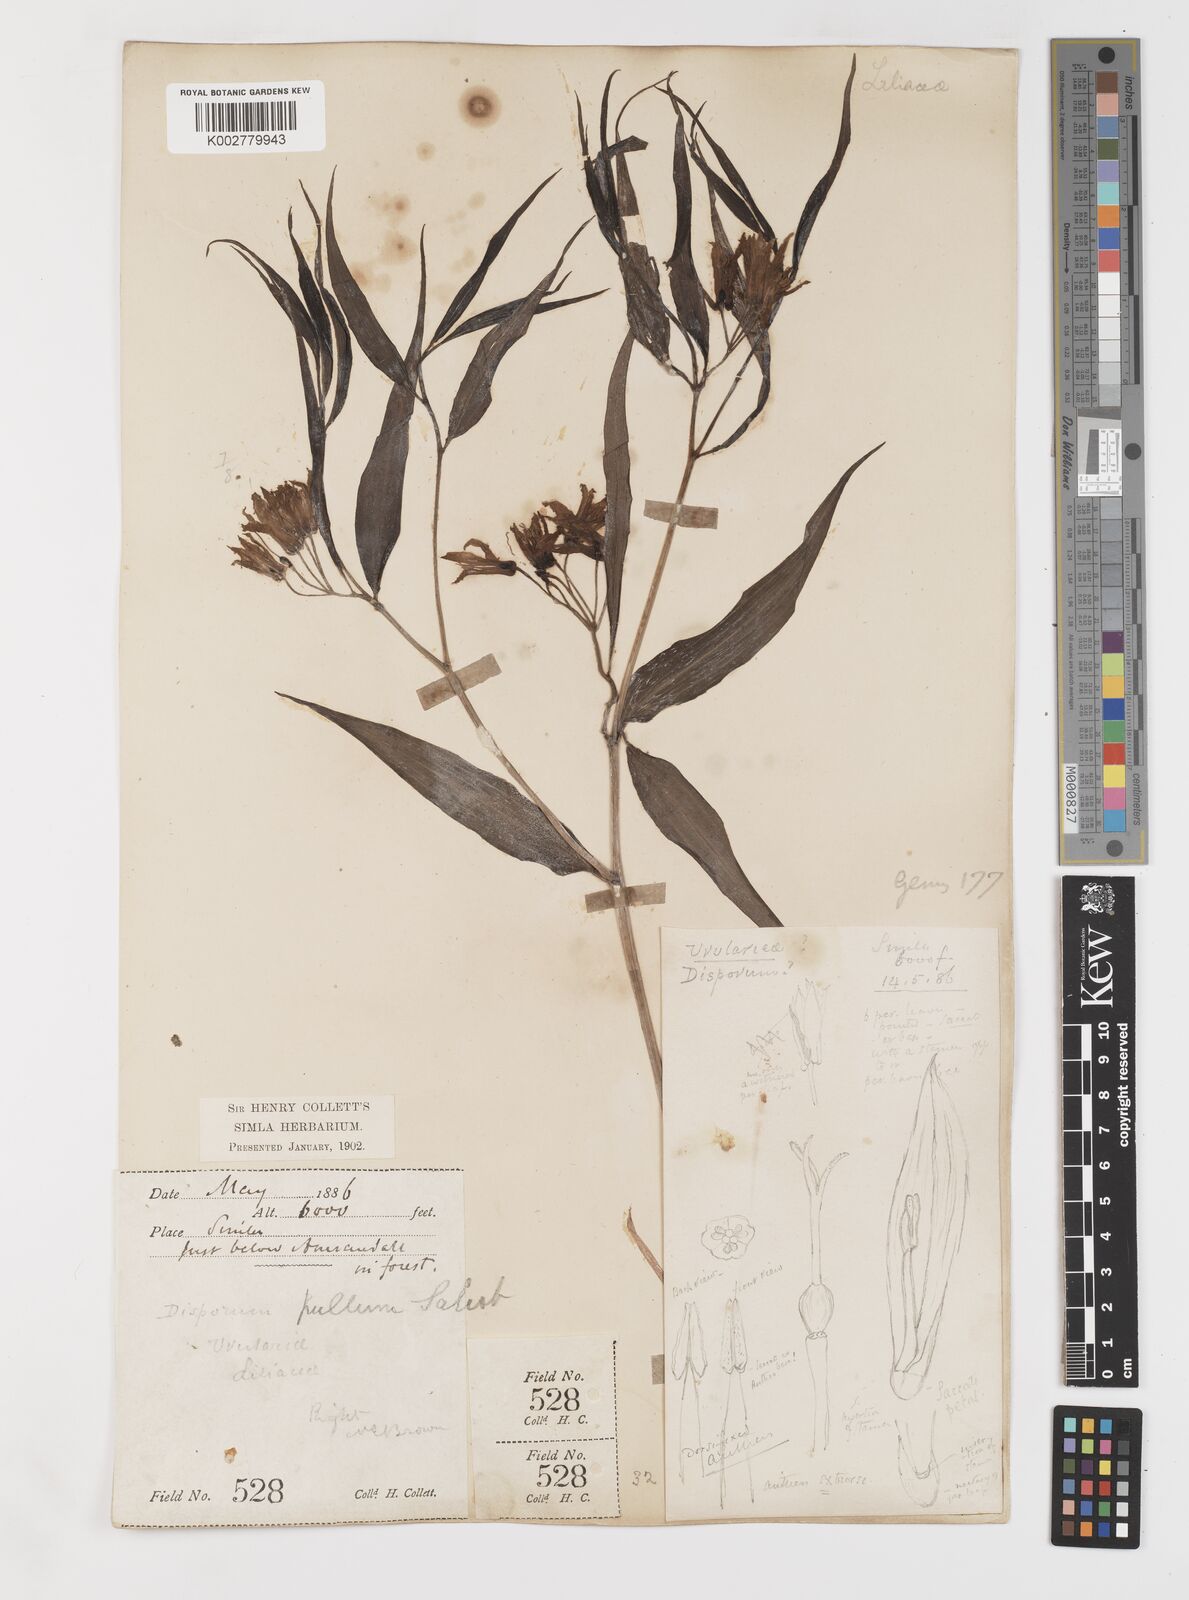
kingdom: Plantae
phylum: Tracheophyta
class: Liliopsida
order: Liliales
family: Colchicaceae
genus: Disporum
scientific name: Disporum cantoniense
